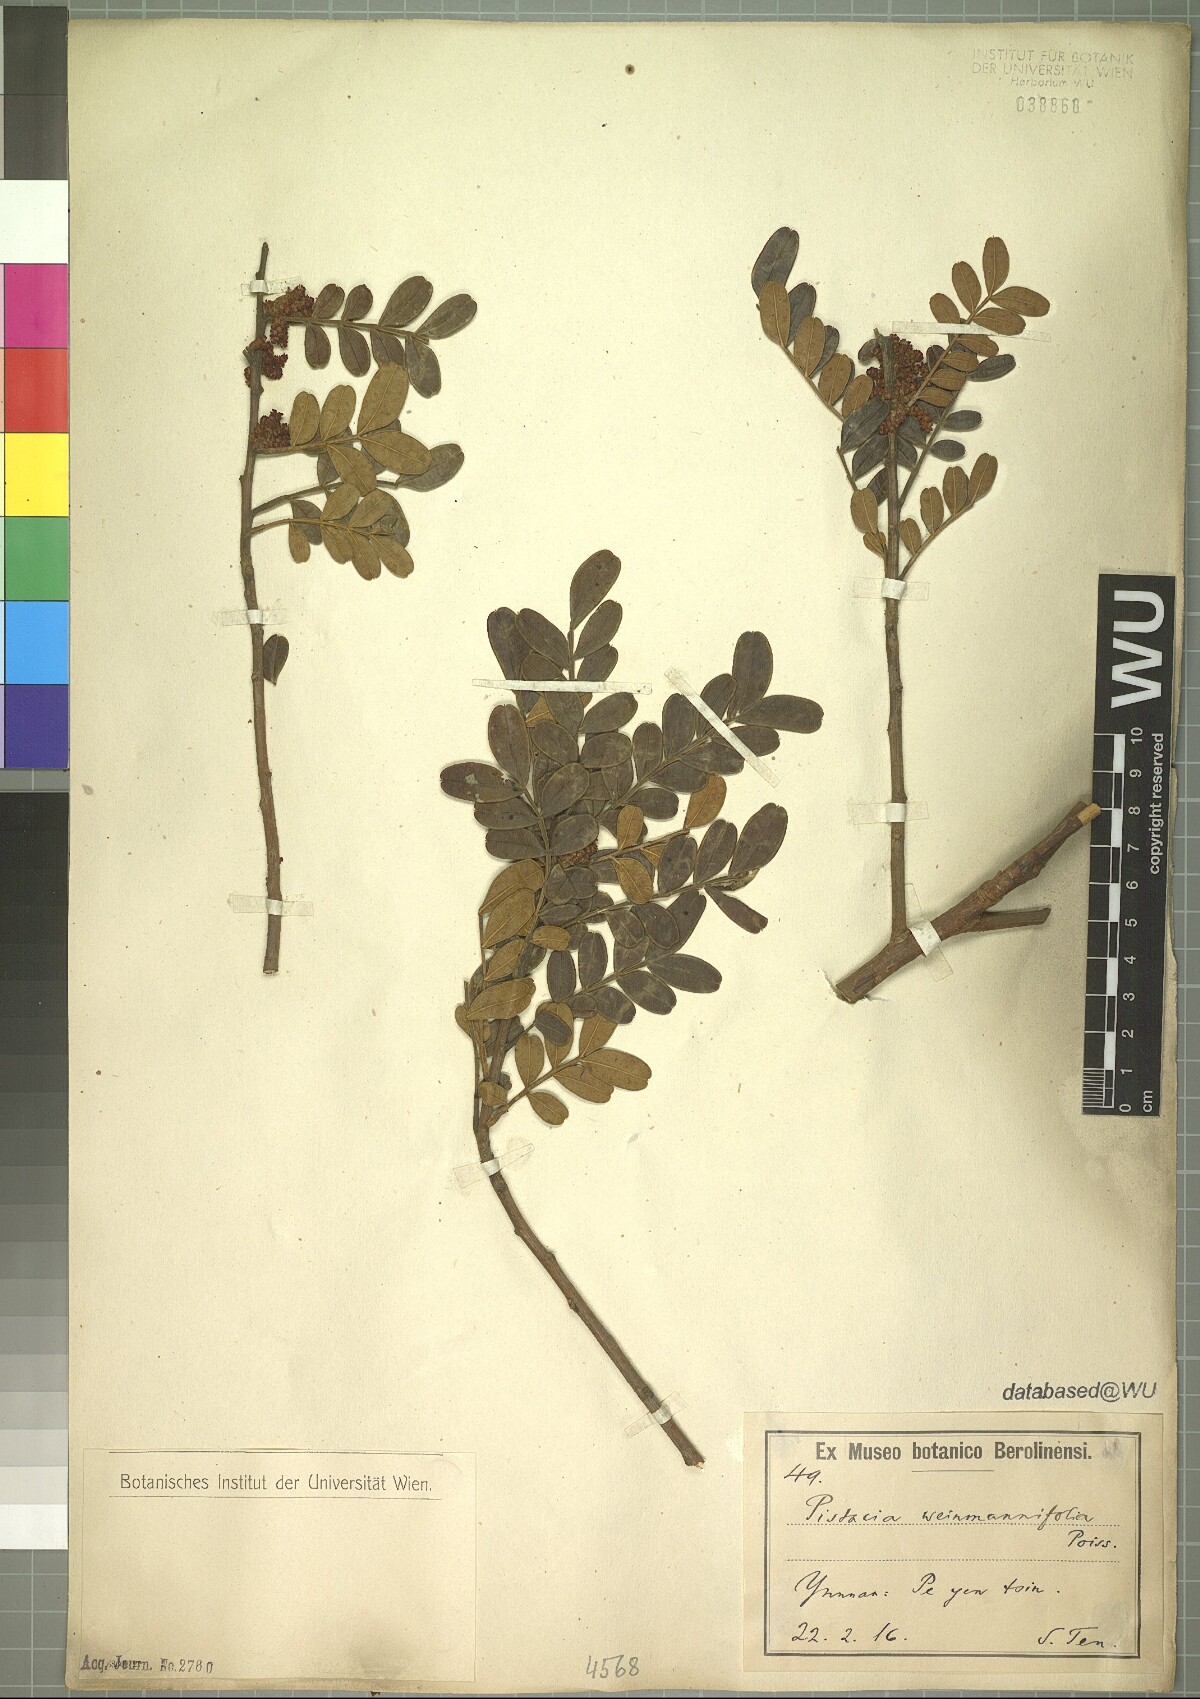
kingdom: Plantae
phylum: Tracheophyta
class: Magnoliopsida
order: Sapindales
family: Anacardiaceae
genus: Pistacia
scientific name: Pistacia weinmannifolia
